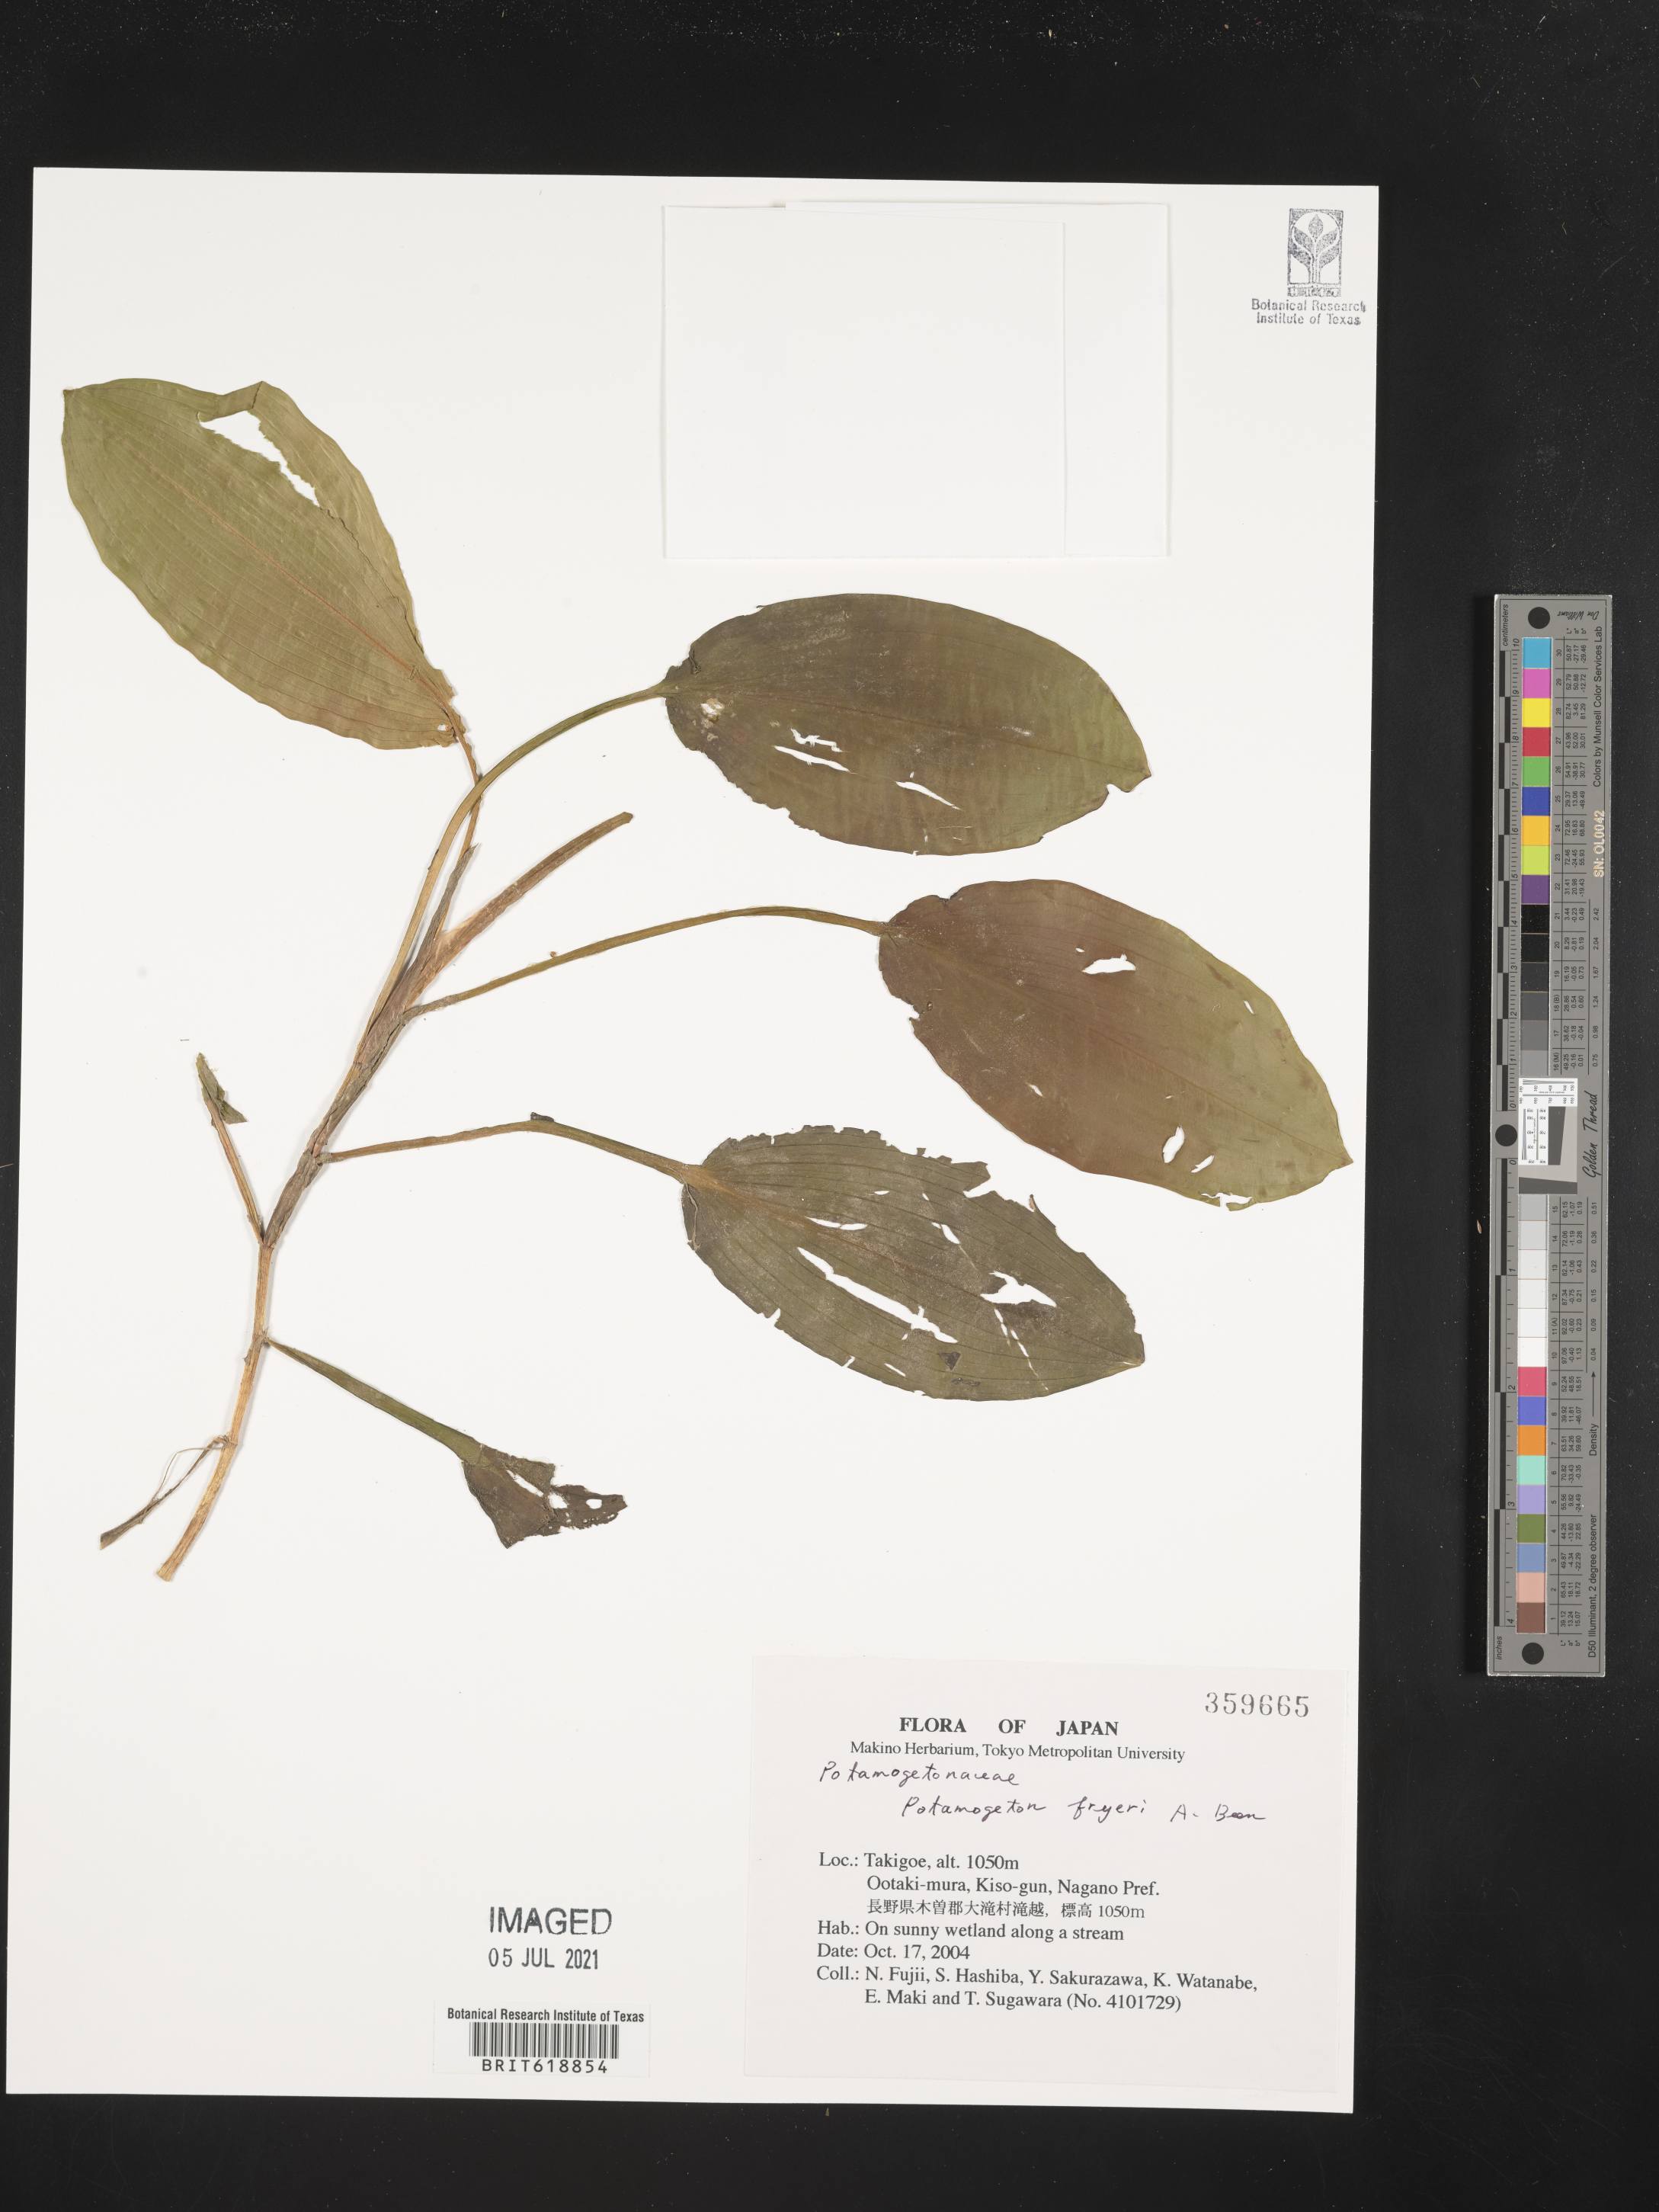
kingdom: Plantae
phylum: Tracheophyta
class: Liliopsida
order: Alismatales
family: Potamogetonaceae
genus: Potamogeton
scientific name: Potamogeton fryeri
